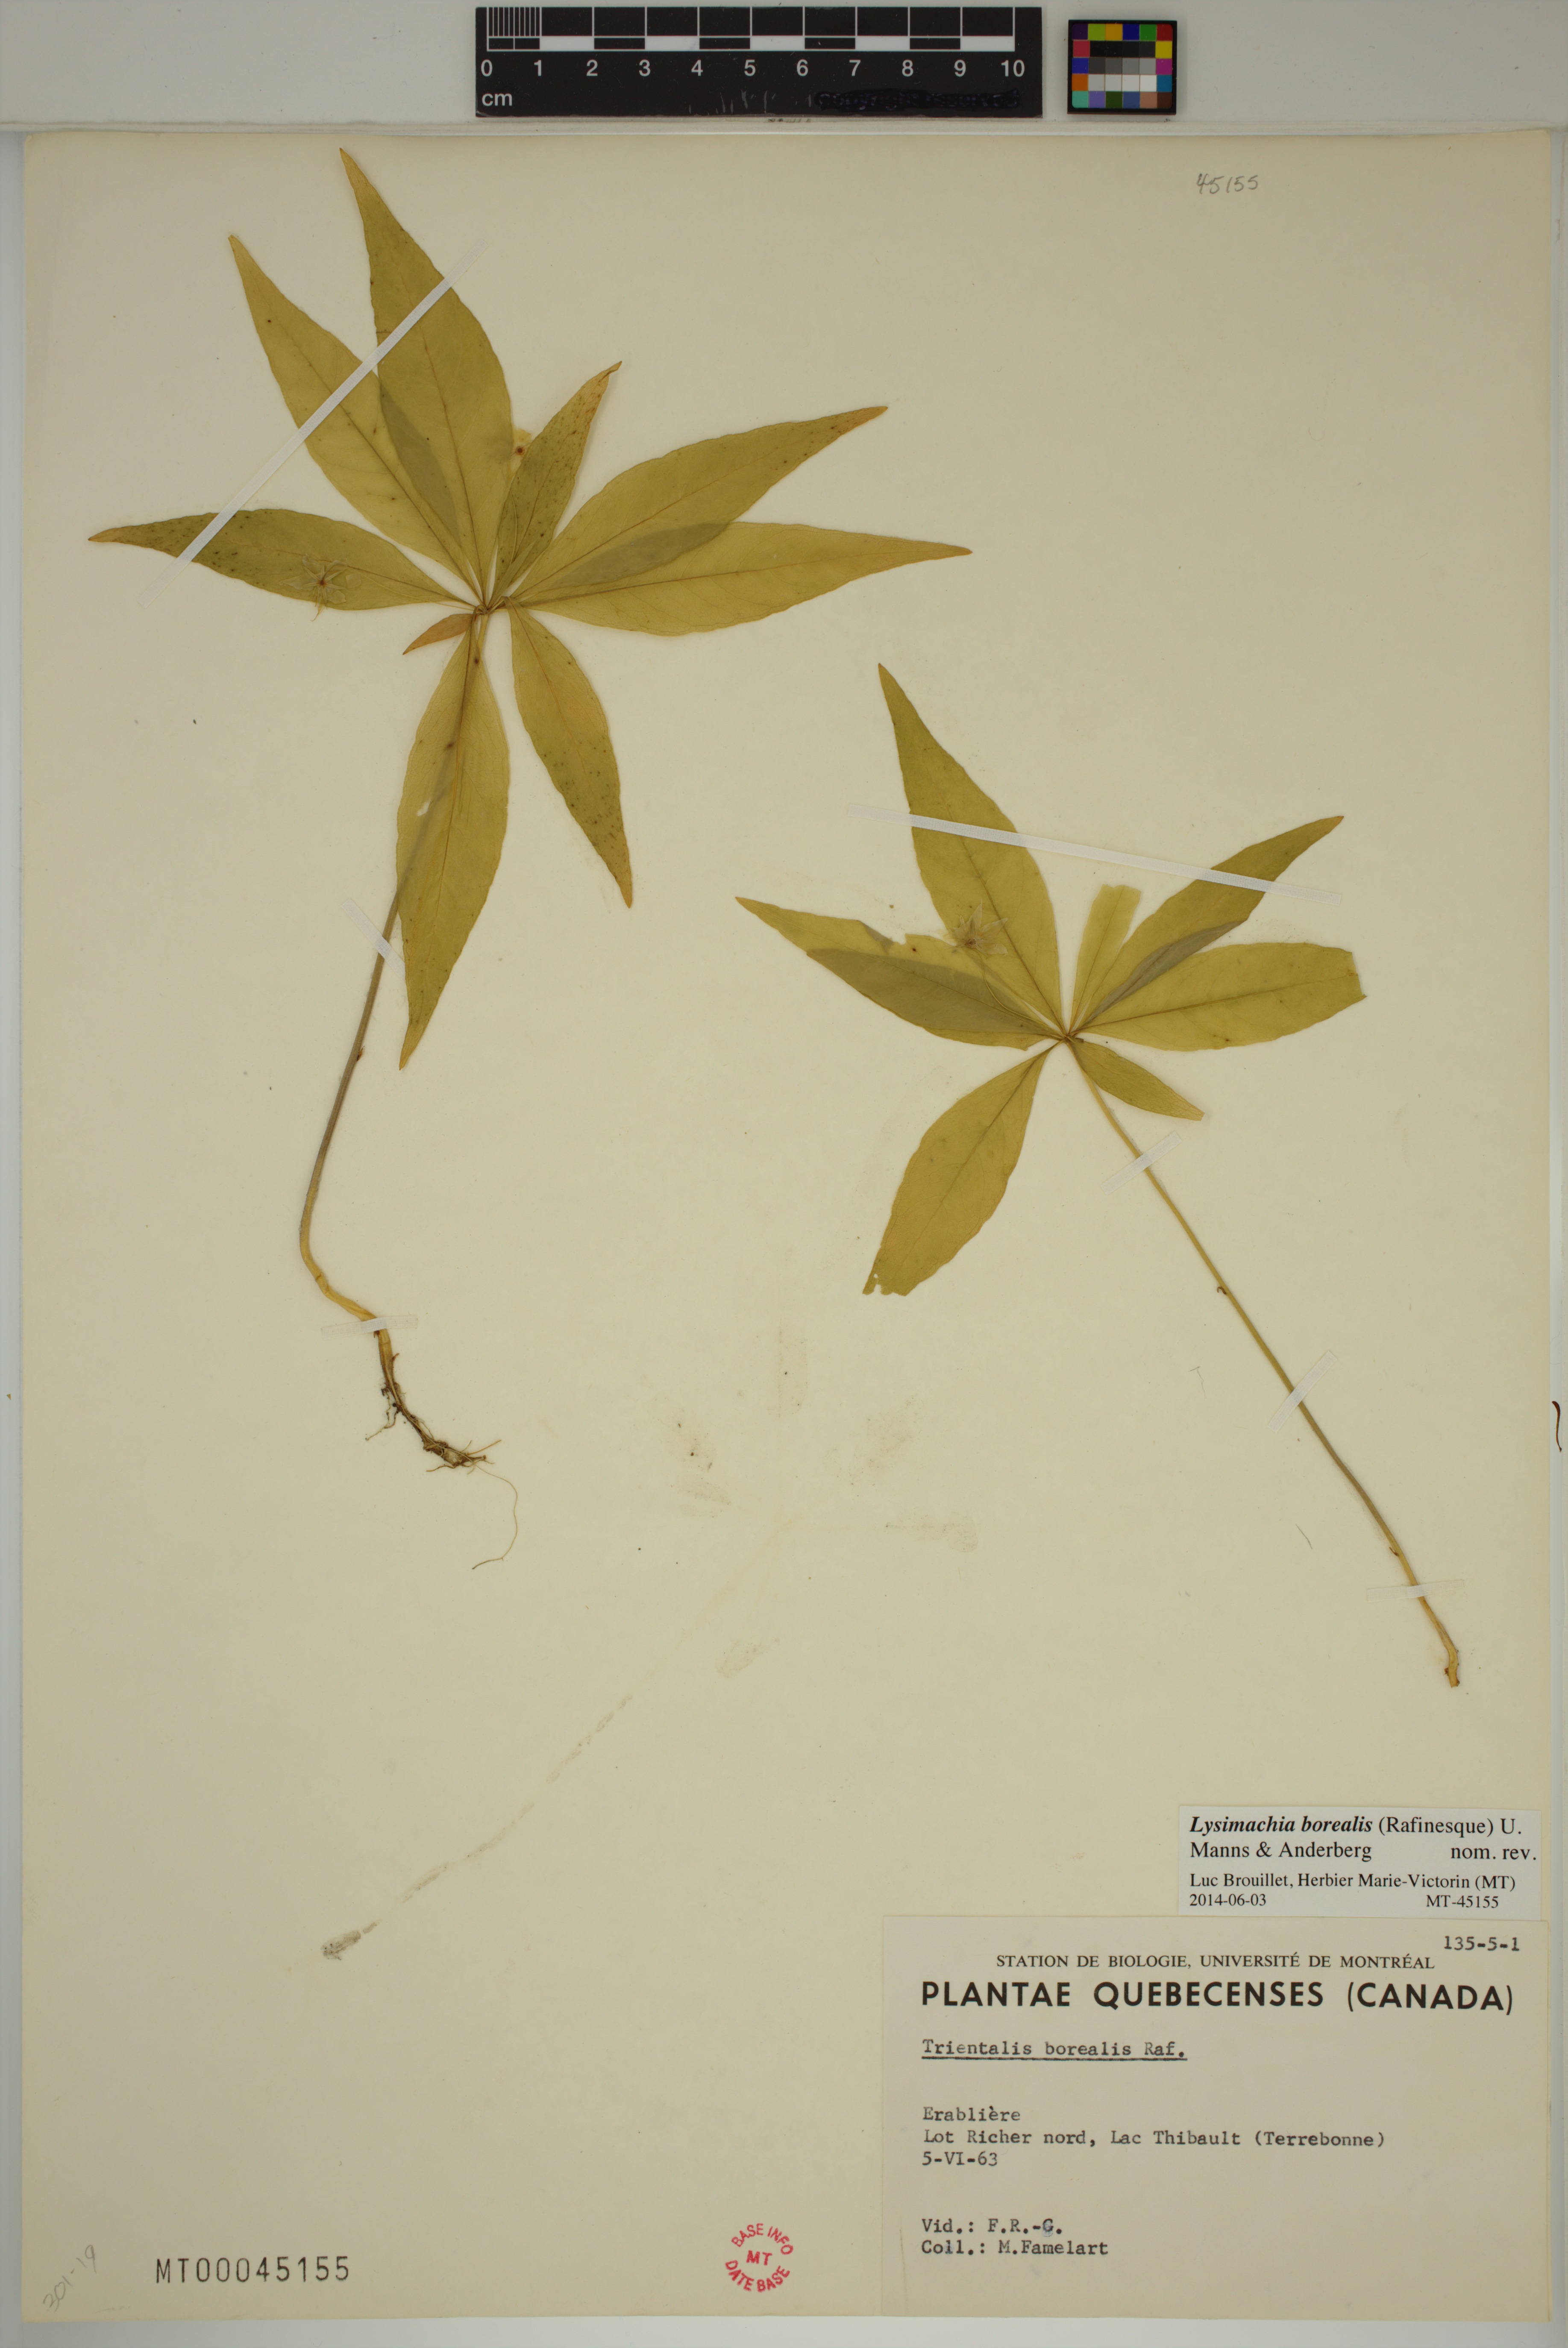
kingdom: Plantae
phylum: Tracheophyta
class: Magnoliopsida
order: Ericales
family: Primulaceae
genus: Lysimachia
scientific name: Lysimachia borealis
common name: American starflower
